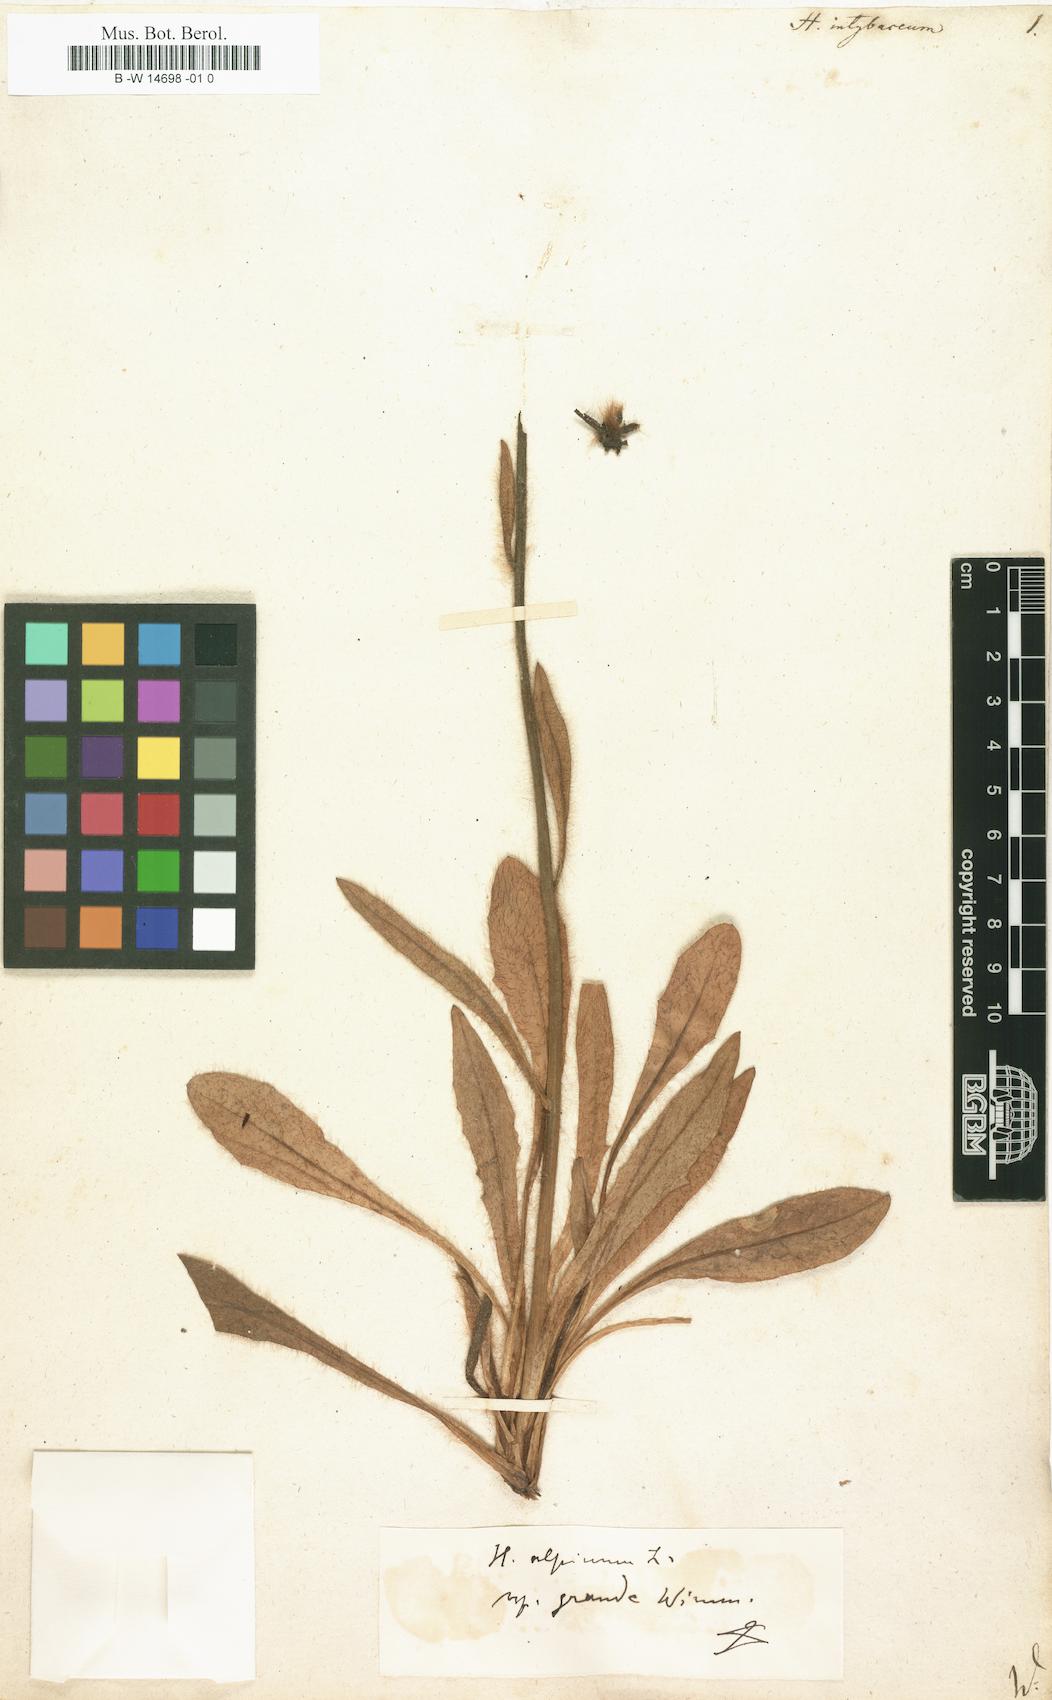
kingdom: Plantae
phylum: Tracheophyta
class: Magnoliopsida
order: Asterales
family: Asteraceae
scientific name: Asteraceae
